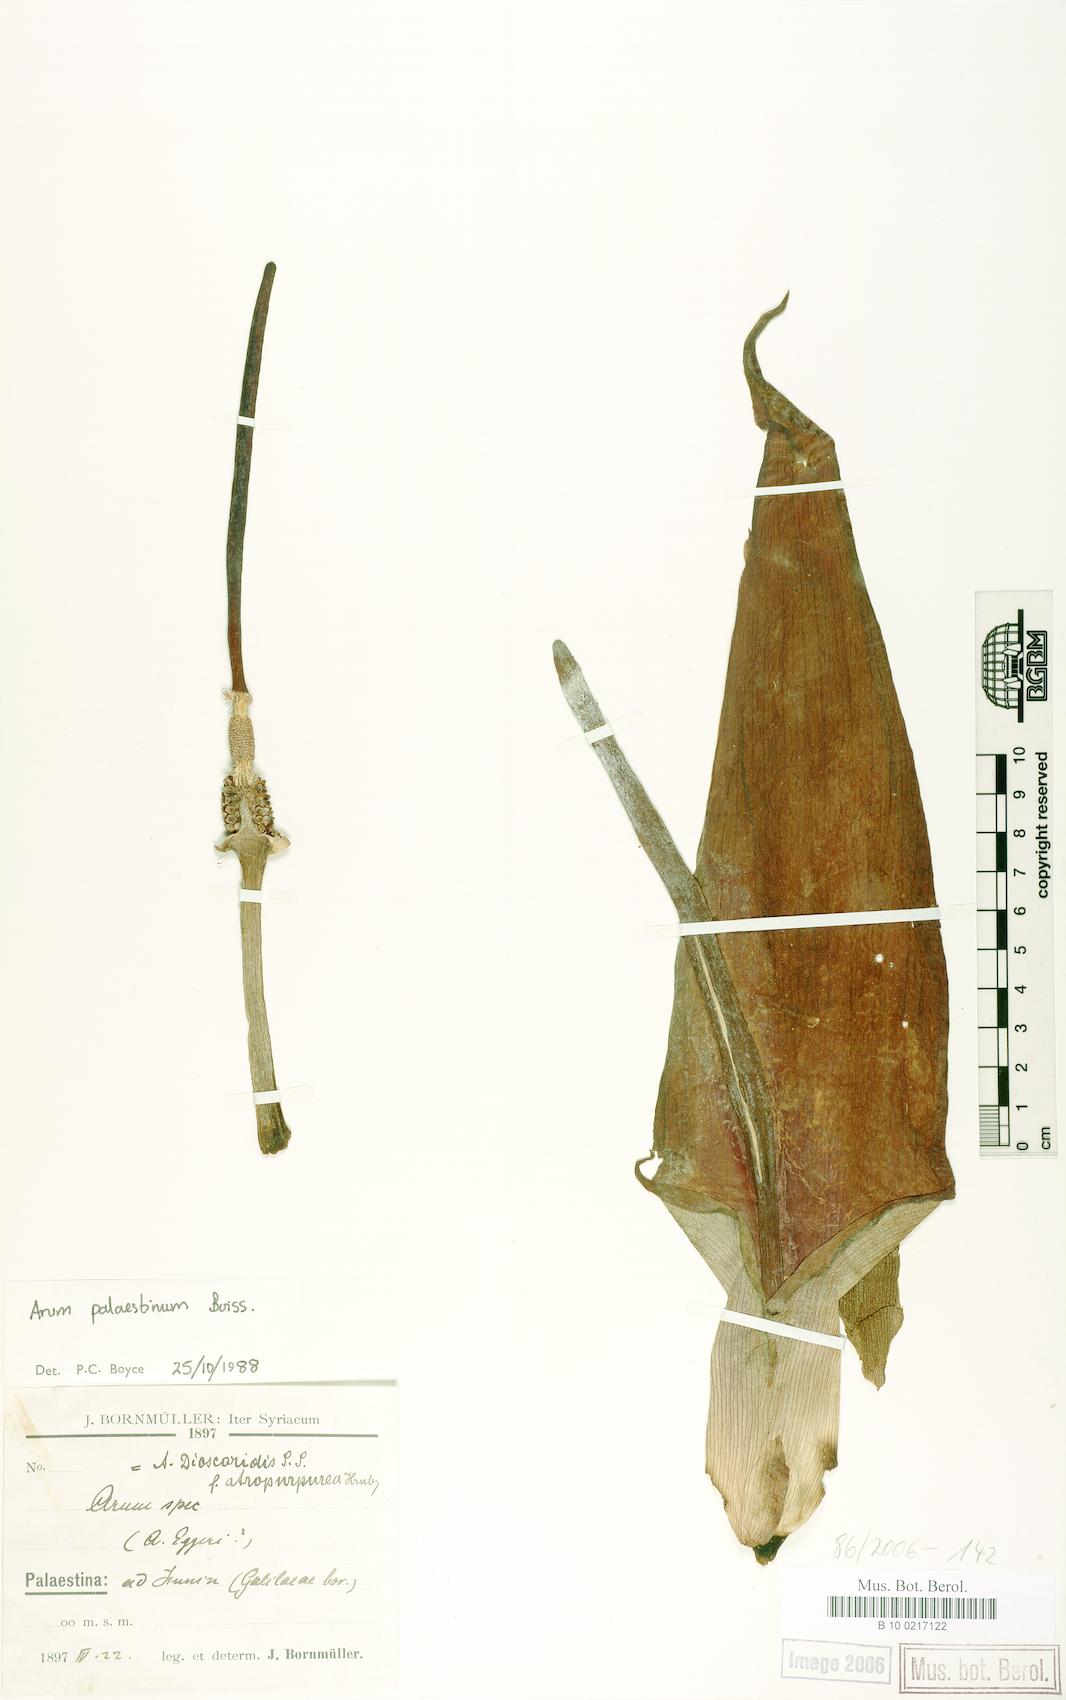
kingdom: Plantae
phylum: Tracheophyta
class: Liliopsida
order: Alismatales
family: Araceae
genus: Arum
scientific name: Arum palaestinum
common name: Solomon's lily
